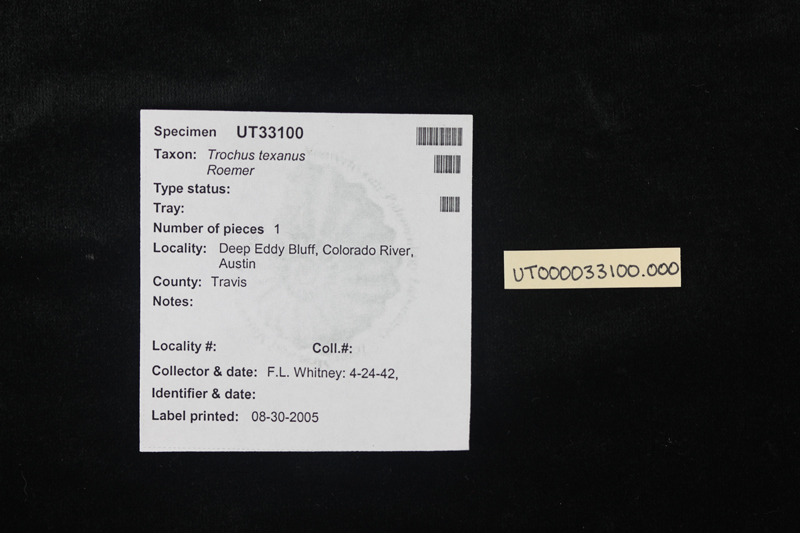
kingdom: Animalia
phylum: Mollusca
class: Gastropoda
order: Trochida
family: Tegulidae
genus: Tectus
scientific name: Tectus Trochus texanus
